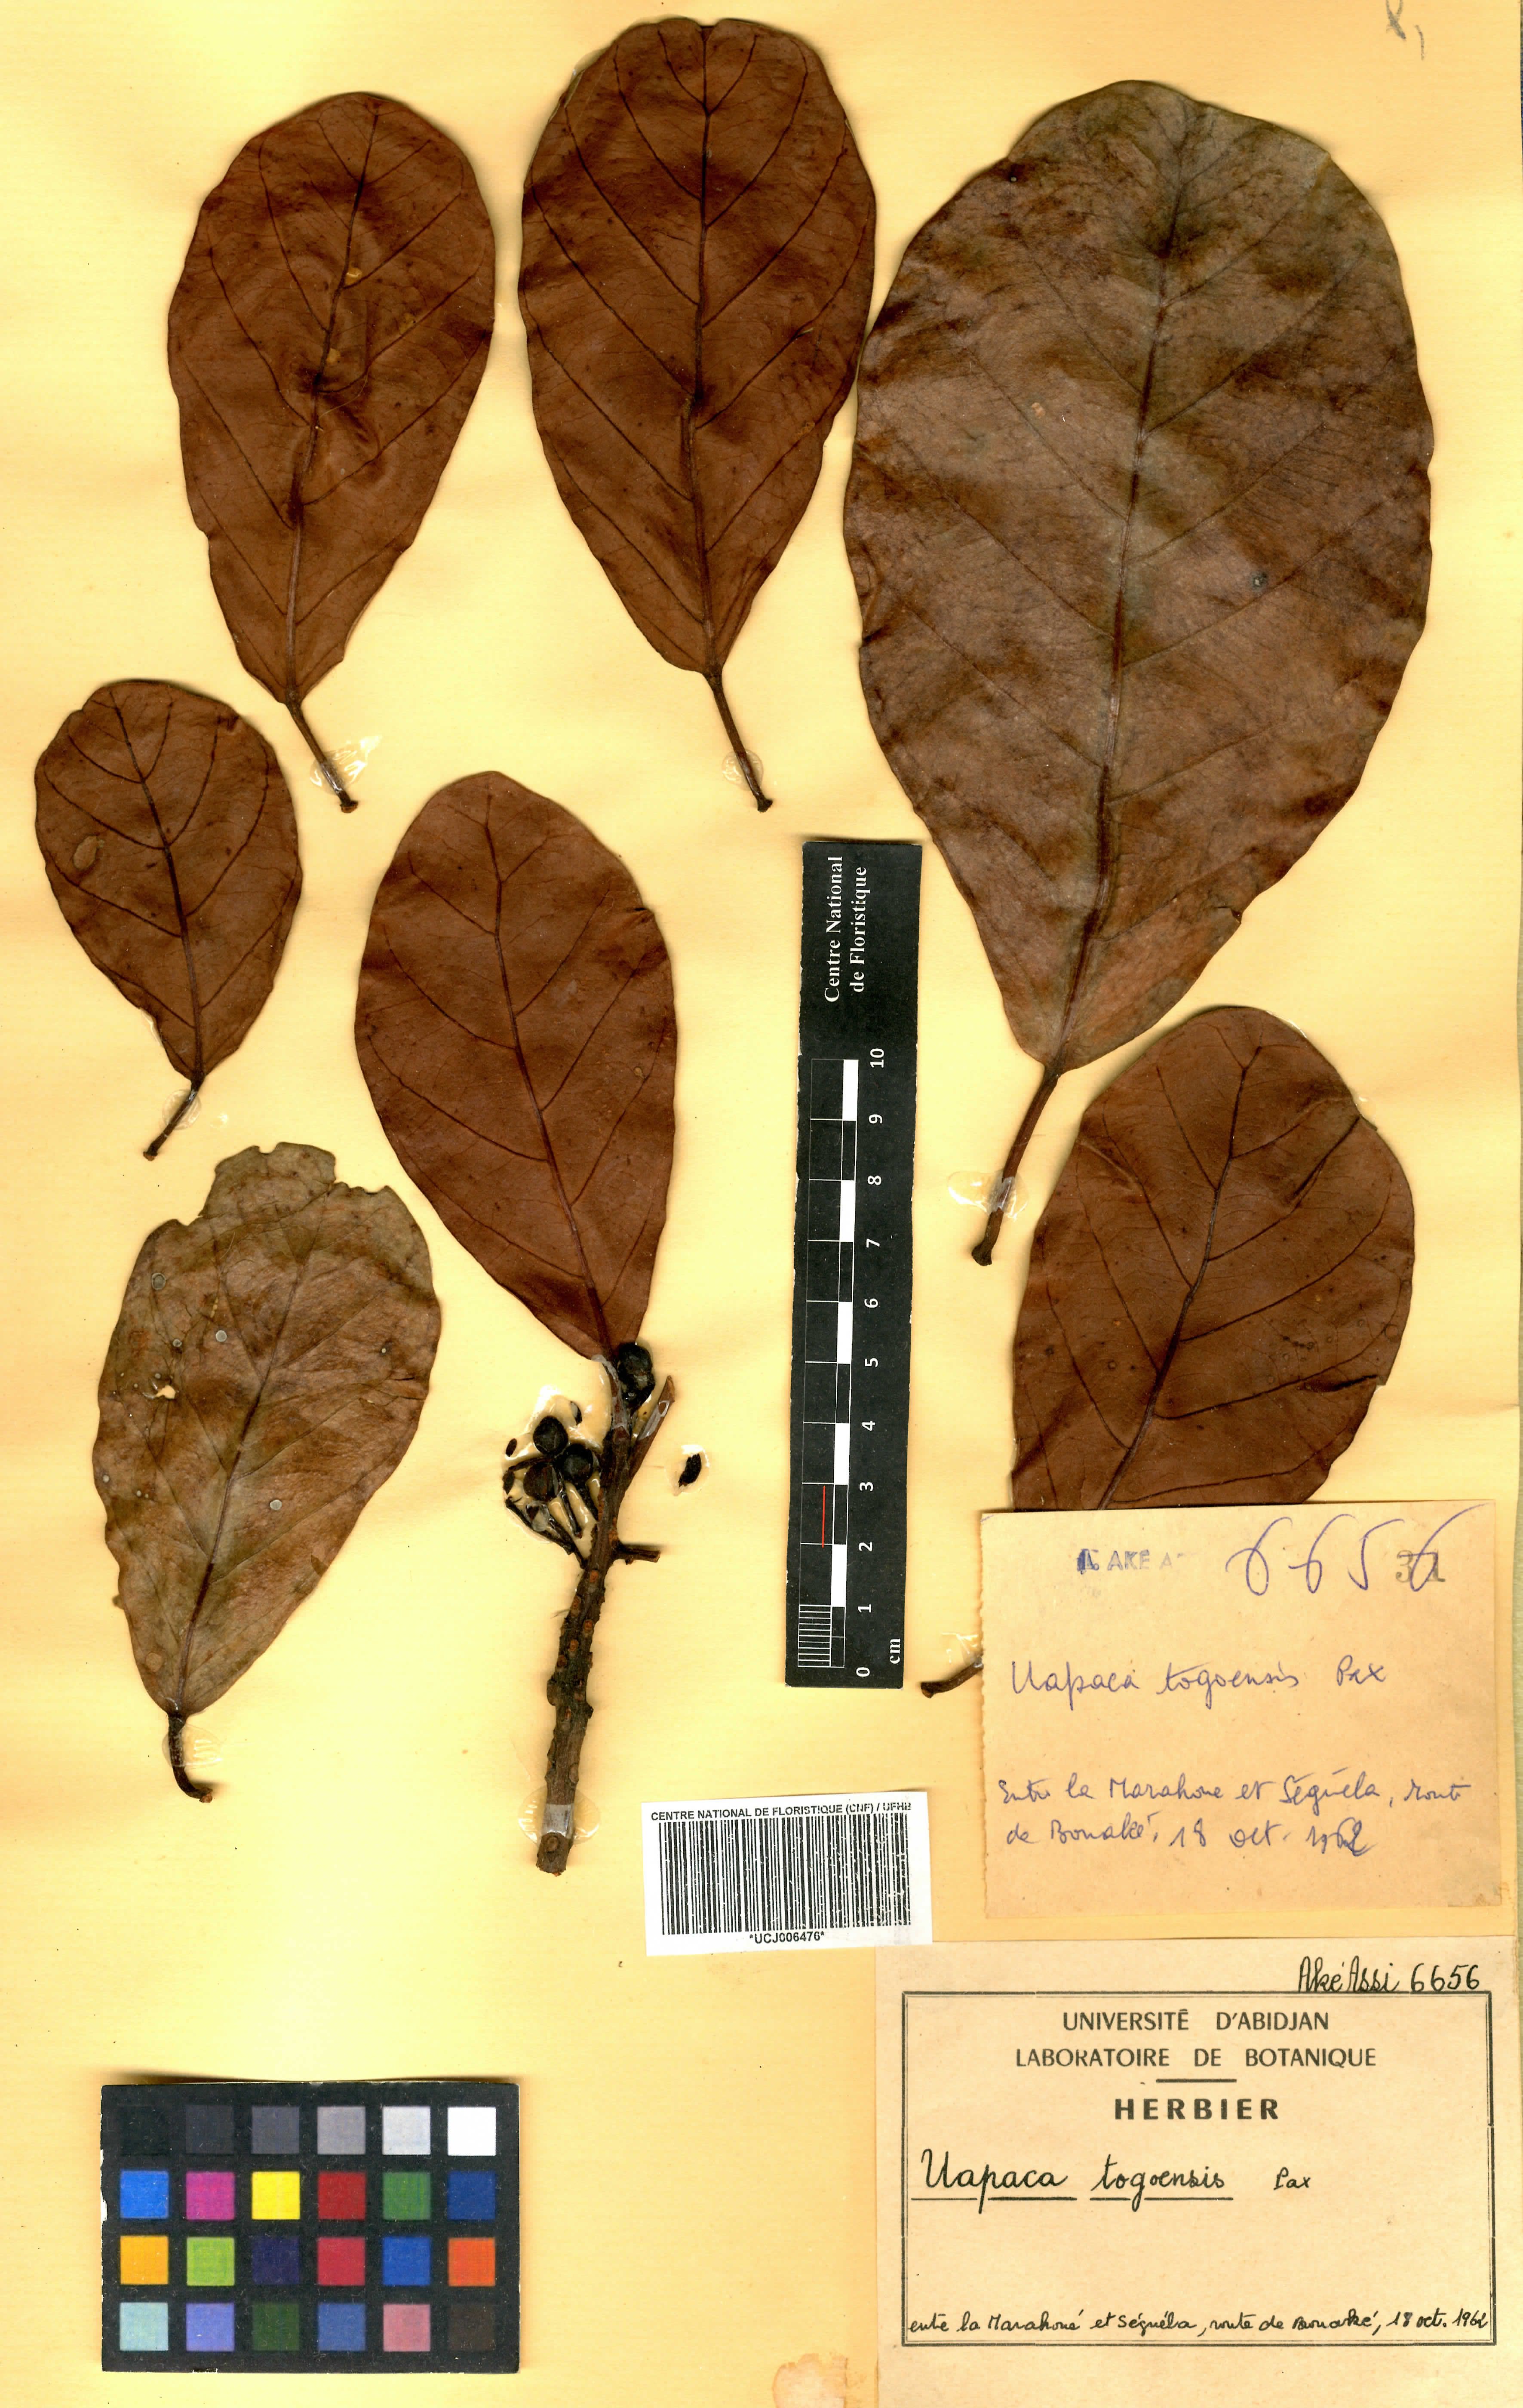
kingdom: Plantae
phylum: Tracheophyta
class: Magnoliopsida
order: Malpighiales
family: Phyllanthaceae
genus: Uapaca
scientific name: Uapaca togoensis
